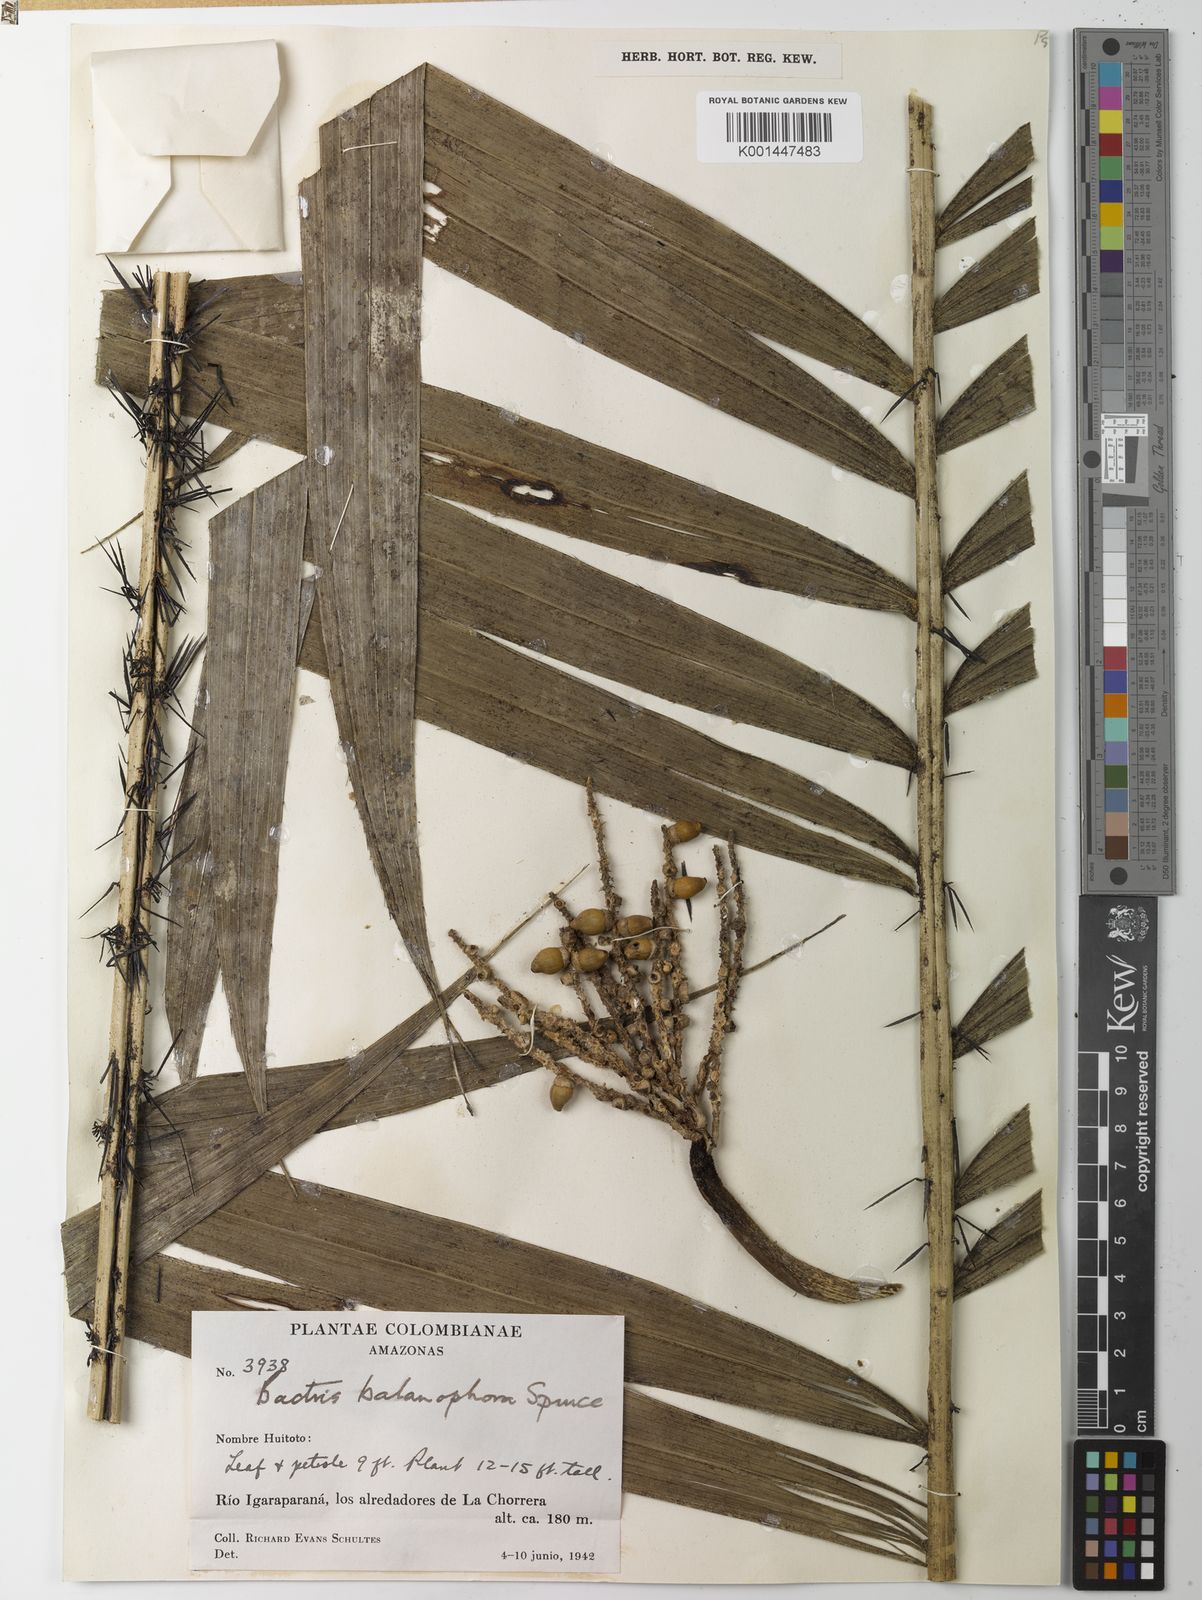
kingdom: Plantae
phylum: Tracheophyta
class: Liliopsida
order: Arecales
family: Arecaceae
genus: Bactris
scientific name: Bactris balanophora
